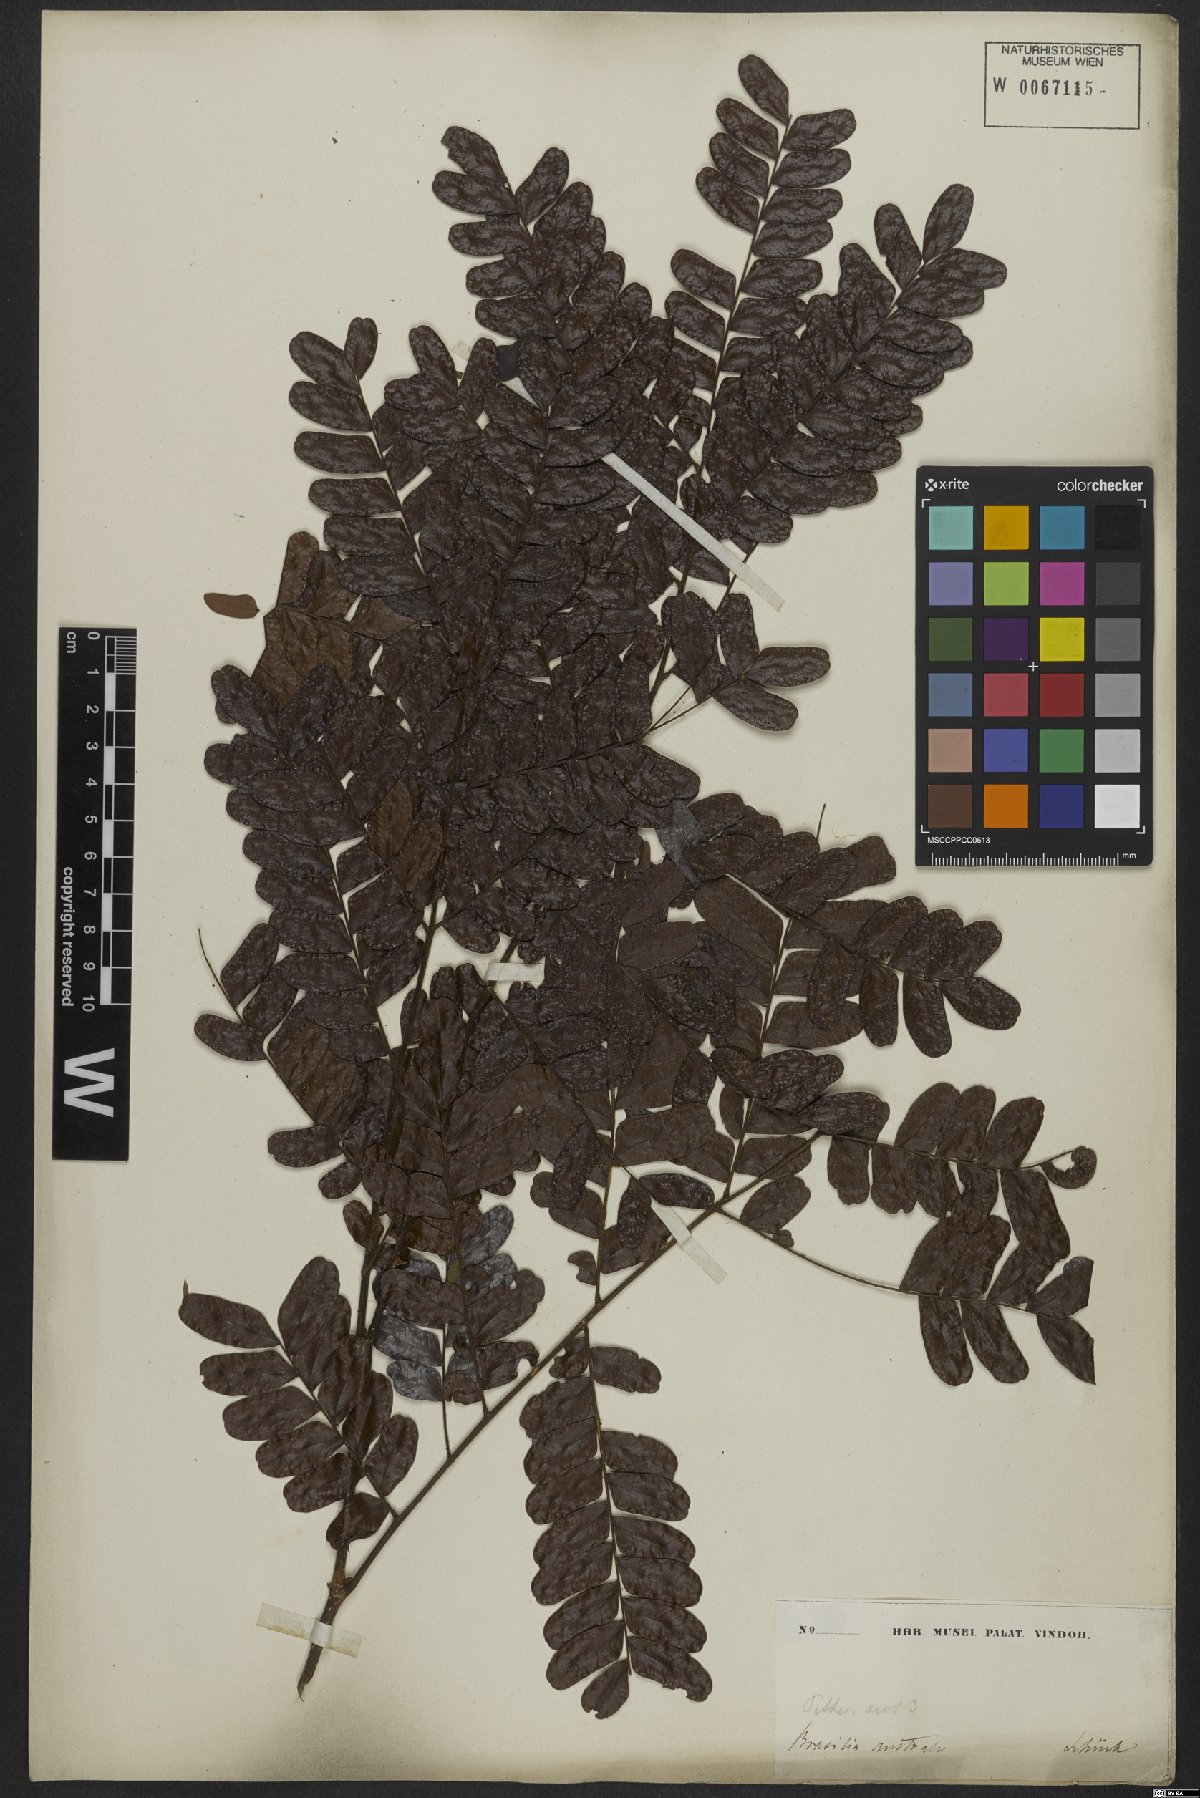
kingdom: Plantae
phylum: Tracheophyta
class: Magnoliopsida
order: Fabales
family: Fabaceae
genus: Hydrochorea
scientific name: Hydrochorea corymbosa
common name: Swamp manariballi
